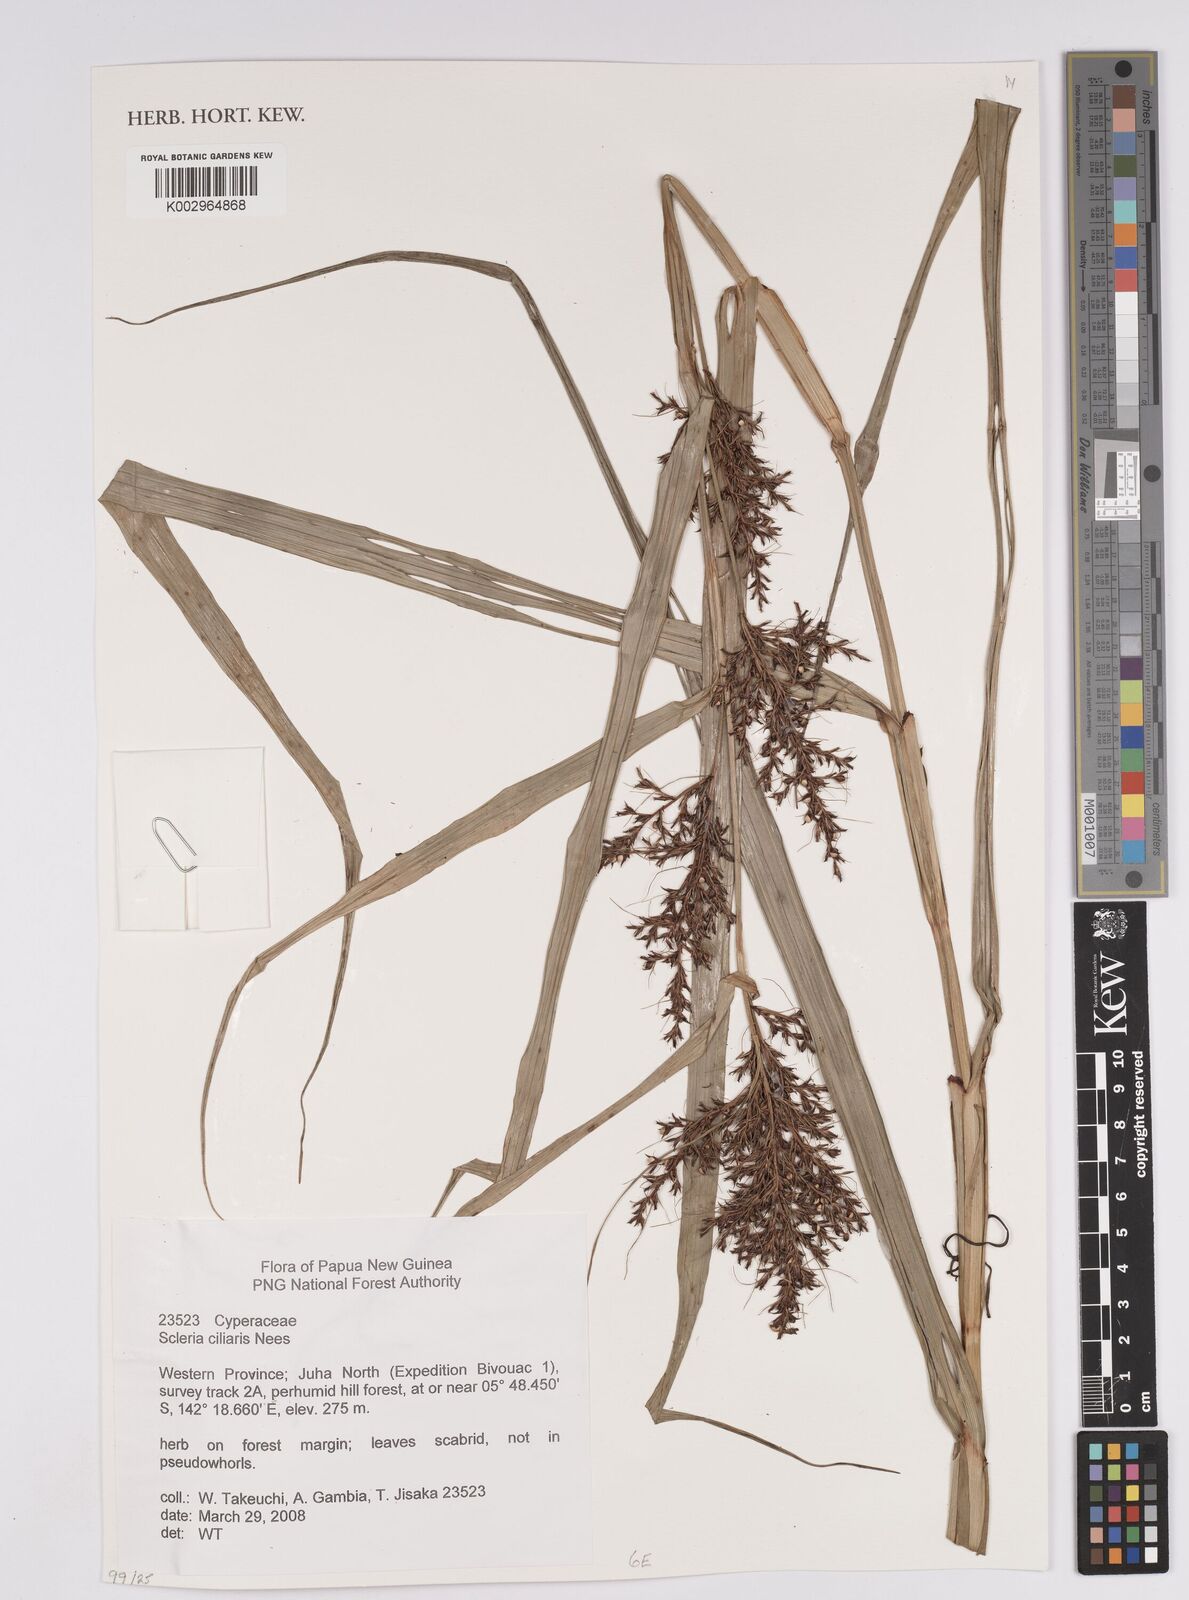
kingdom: Plantae
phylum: Tracheophyta
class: Liliopsida
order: Poales
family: Cyperaceae
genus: Scleria
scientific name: Scleria ciliaris
